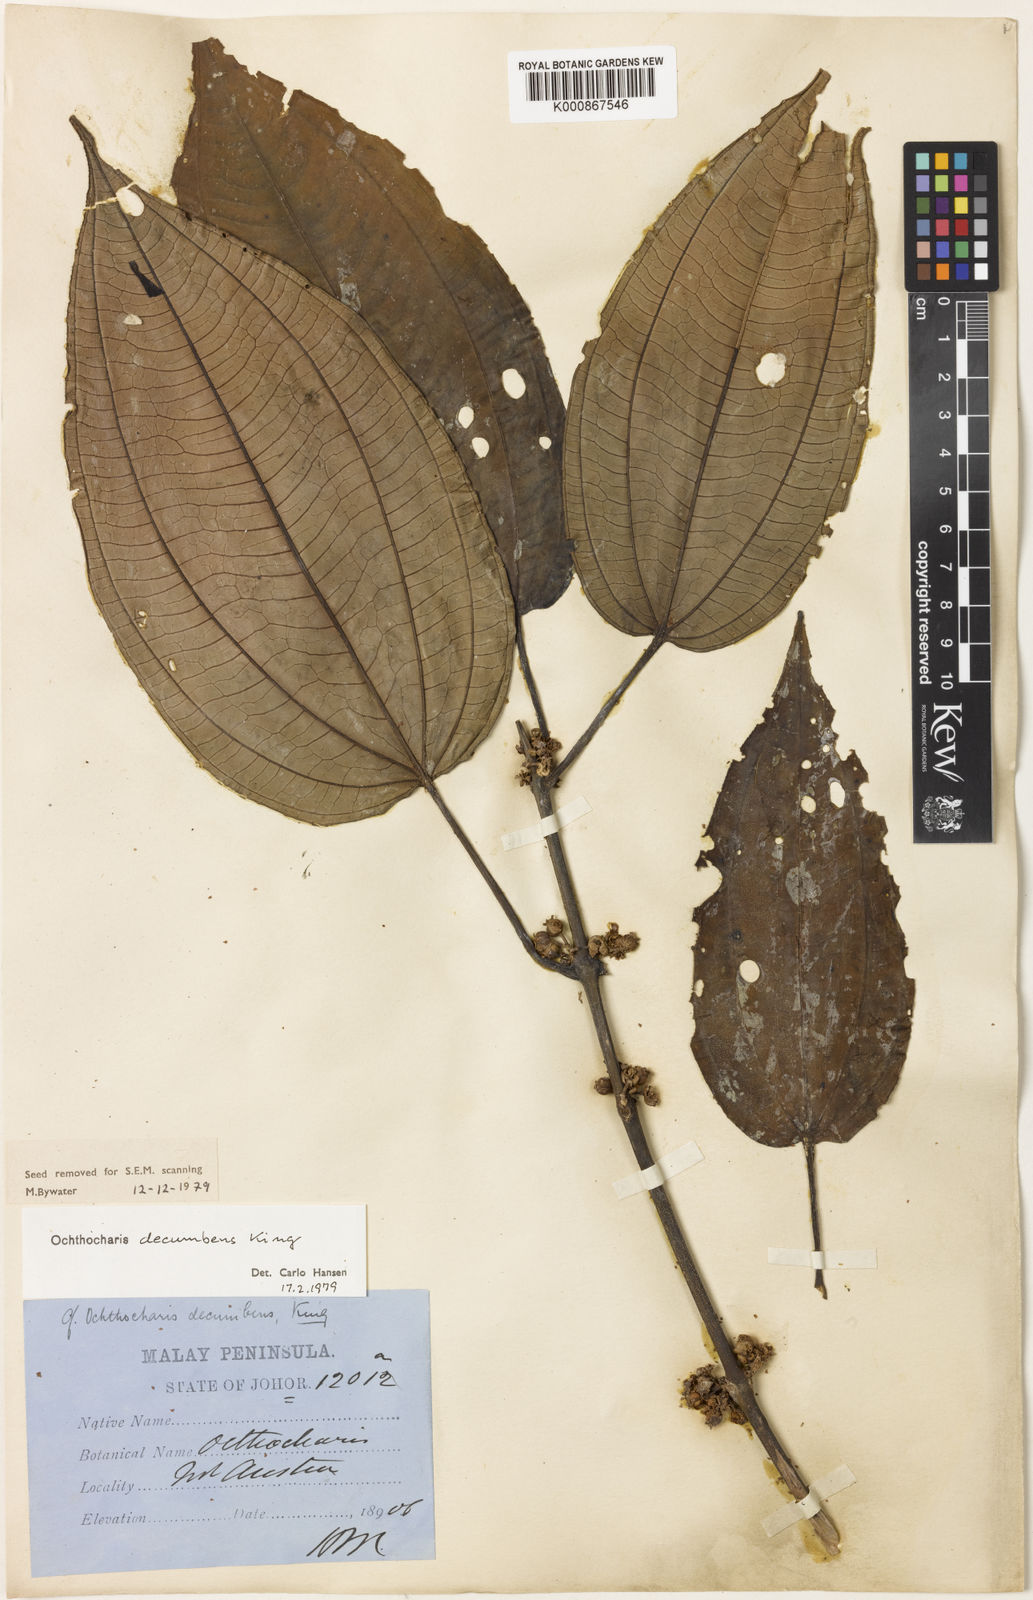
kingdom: Plantae
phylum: Tracheophyta
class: Magnoliopsida
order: Myrtales
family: Melastomataceae
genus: Ochthocharis
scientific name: Ochthocharis decumbens
